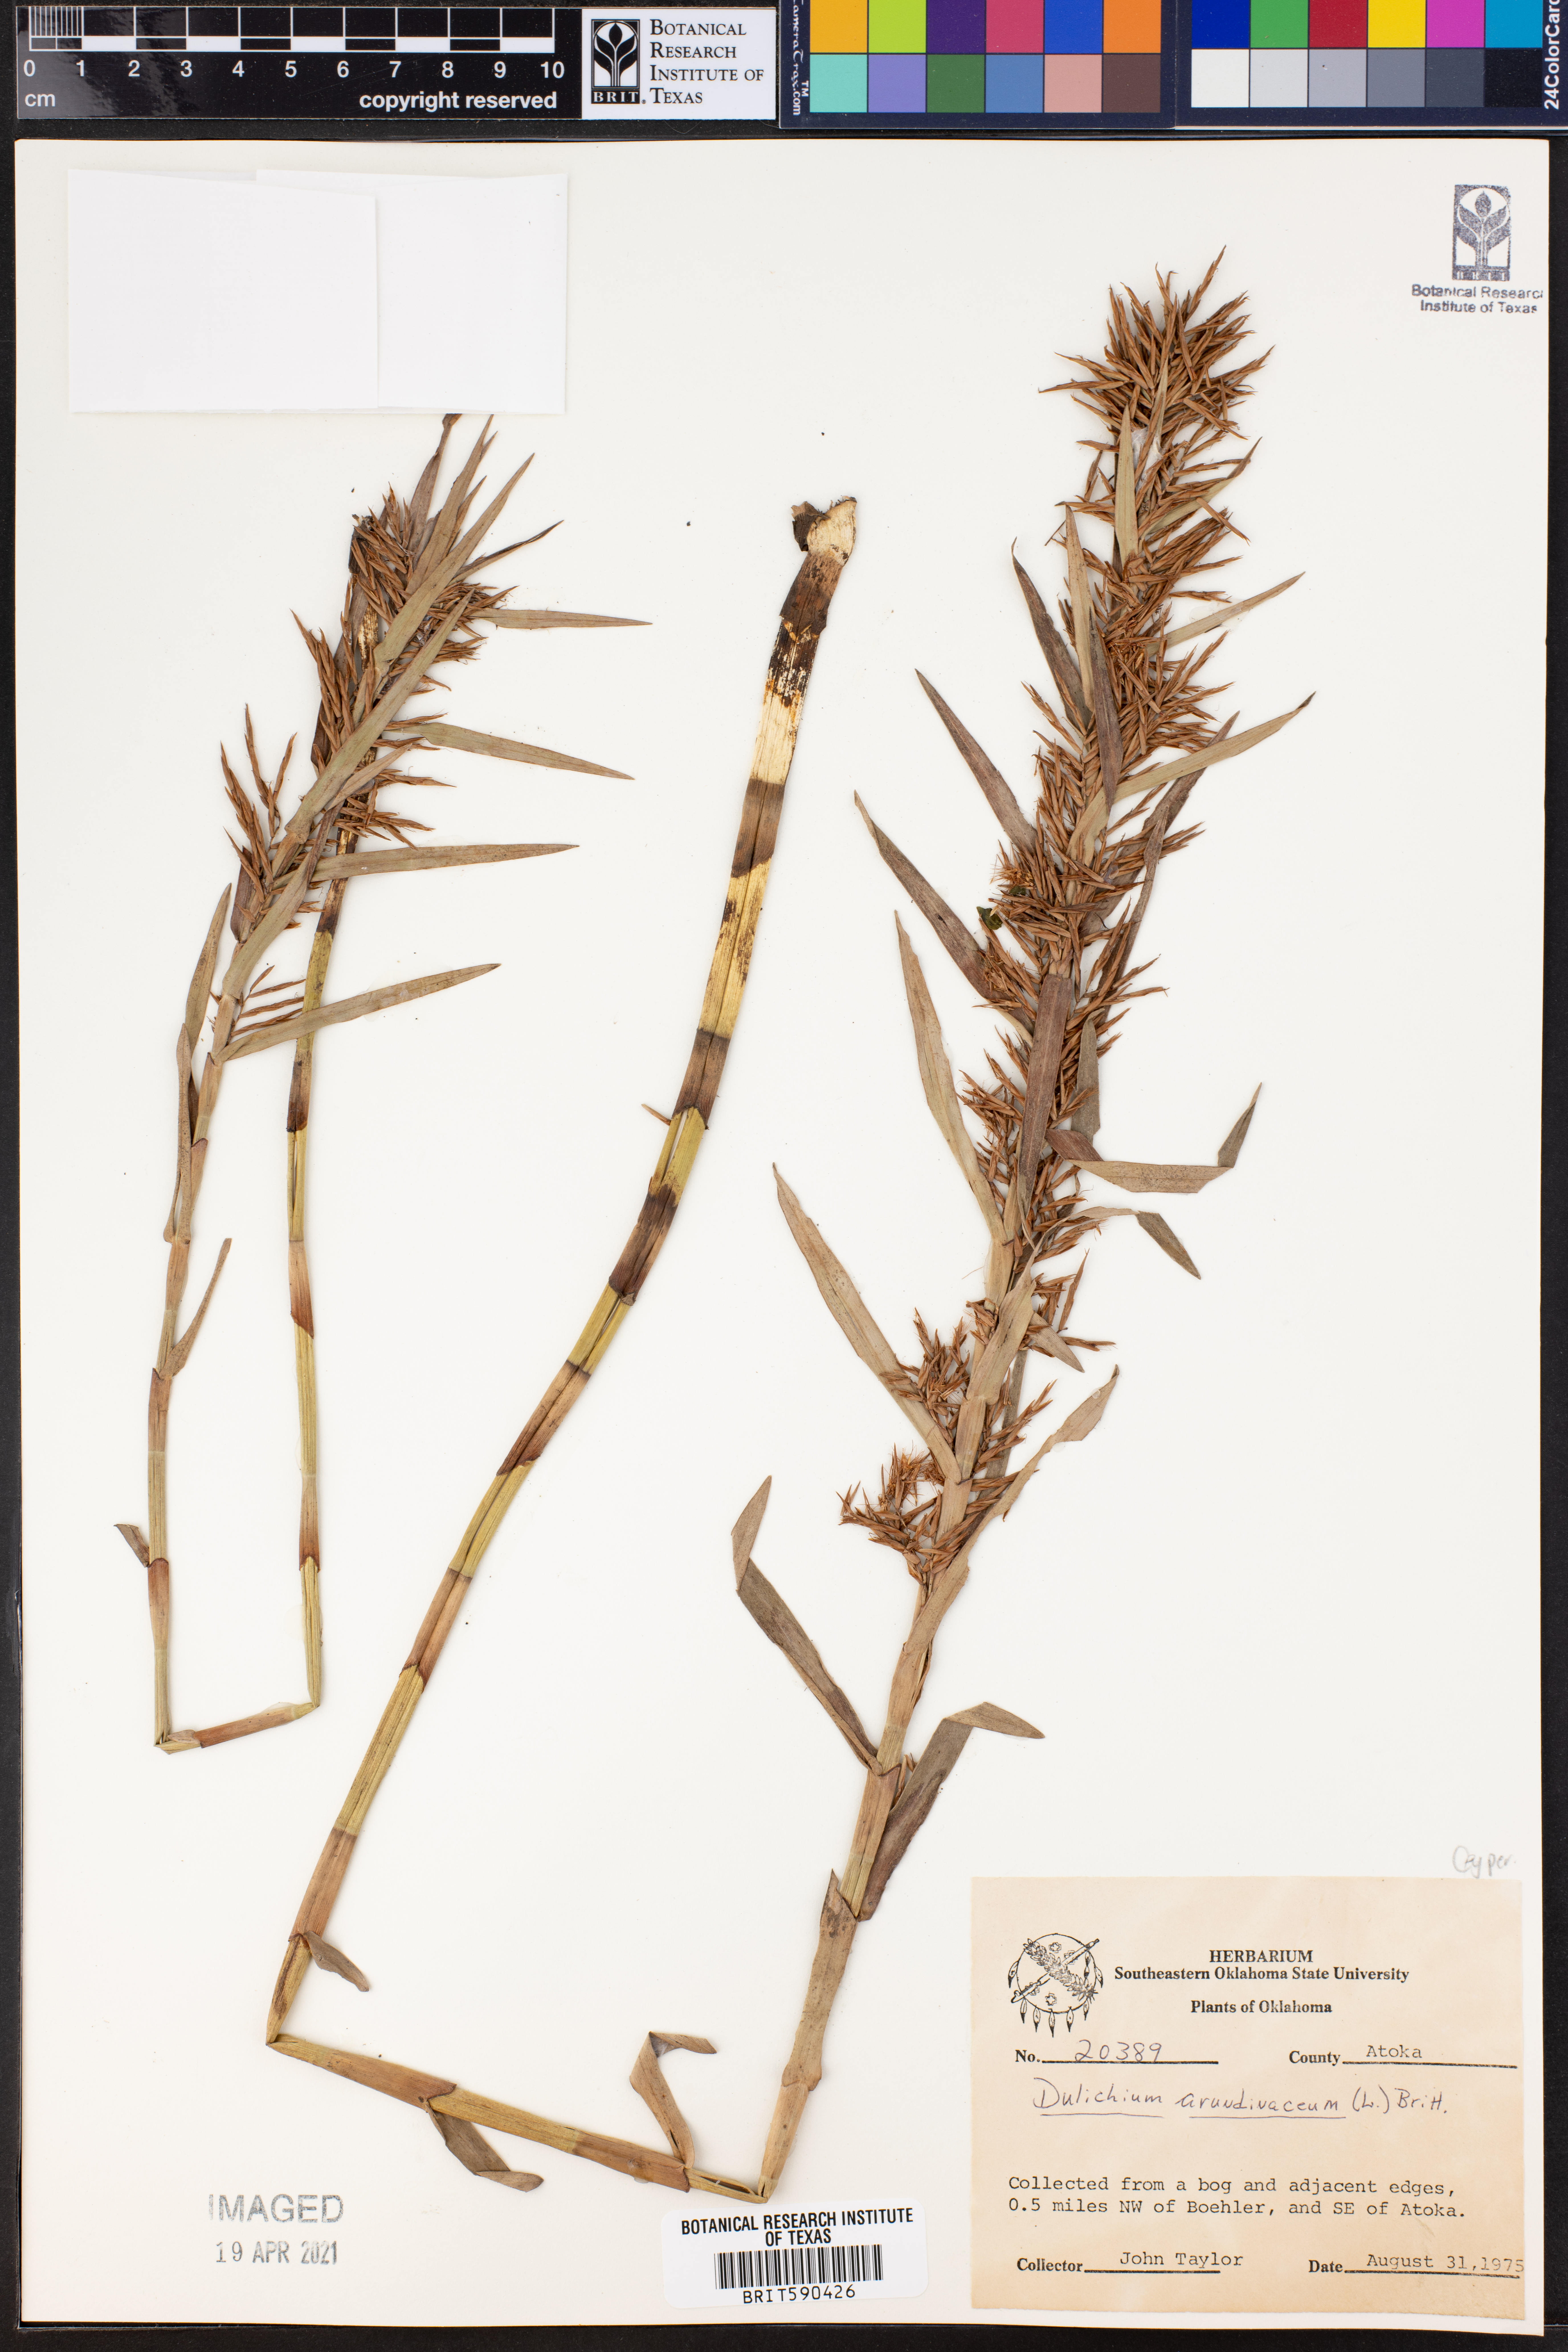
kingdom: Plantae
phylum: Tracheophyta
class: Liliopsida
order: Poales
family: Cyperaceae
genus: Dulichium
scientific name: Dulichium arundinaceum
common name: Three-way sedge
